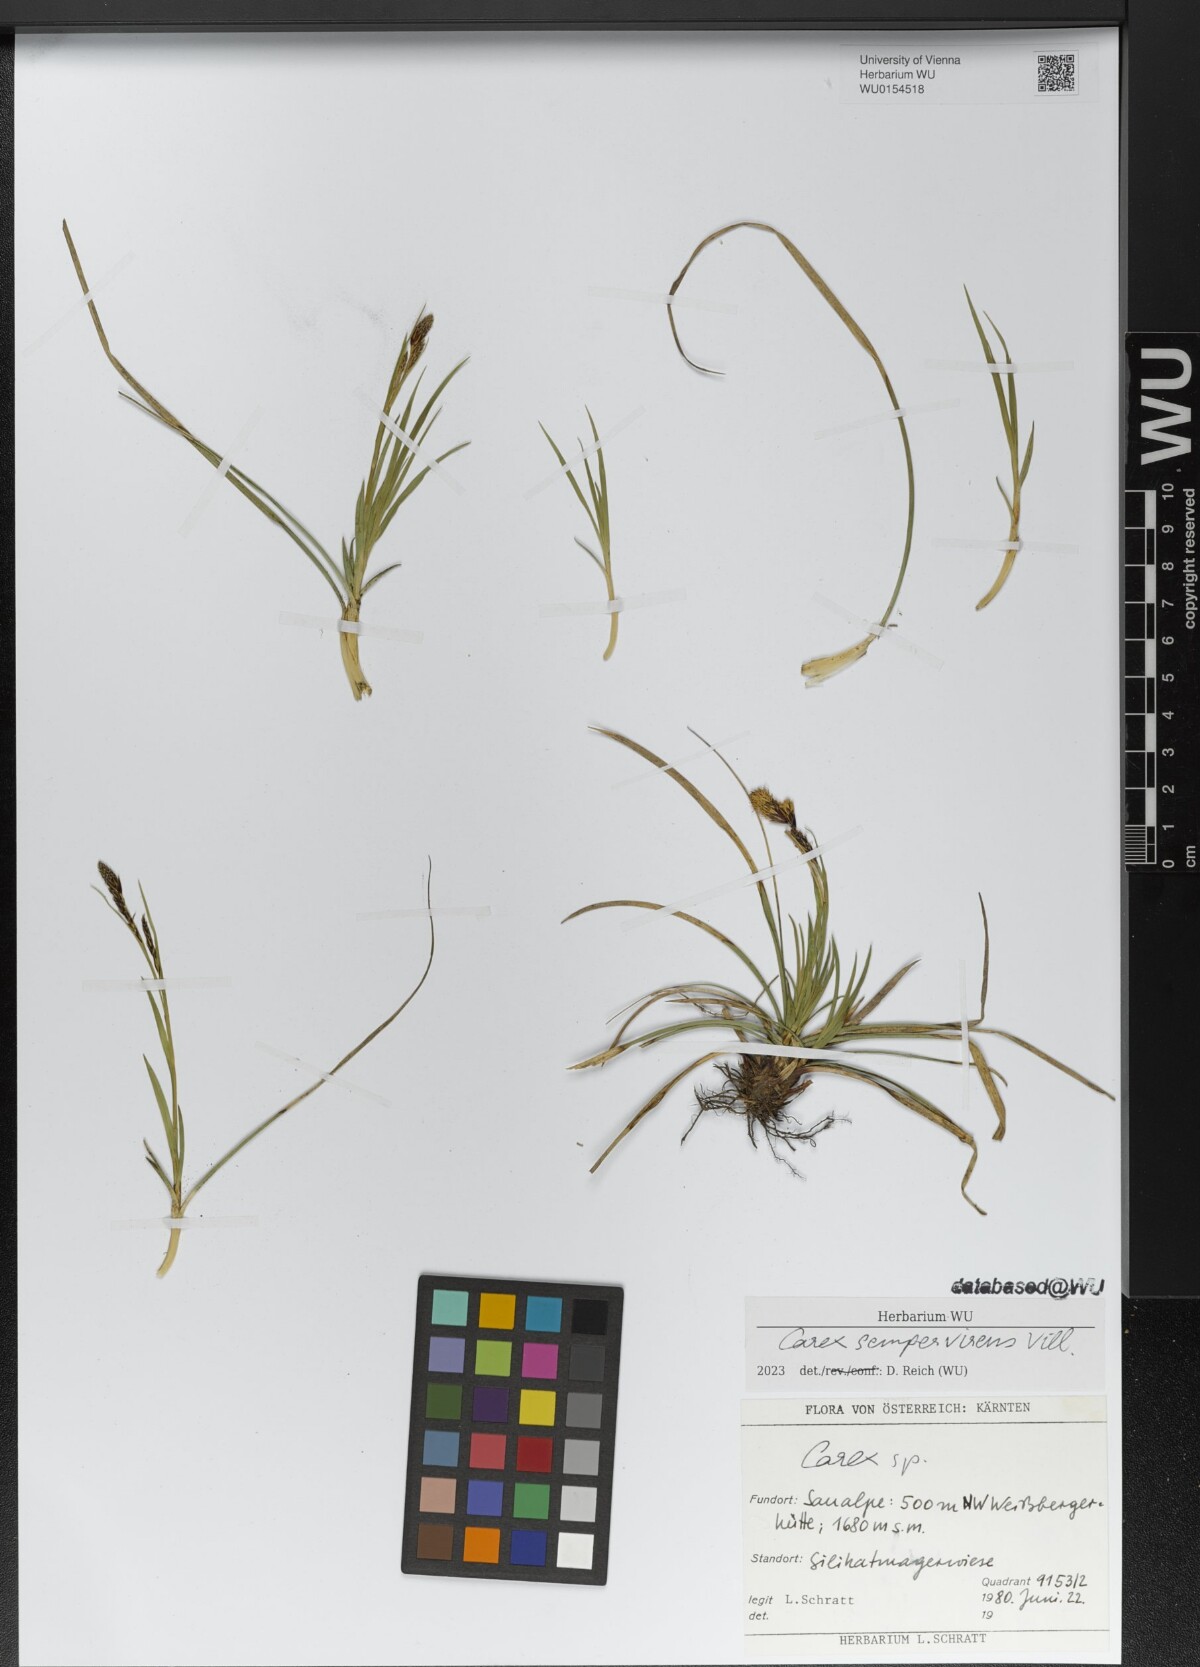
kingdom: Plantae
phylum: Tracheophyta
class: Liliopsida
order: Poales
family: Cyperaceae
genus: Carex
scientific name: Carex sempervirens
